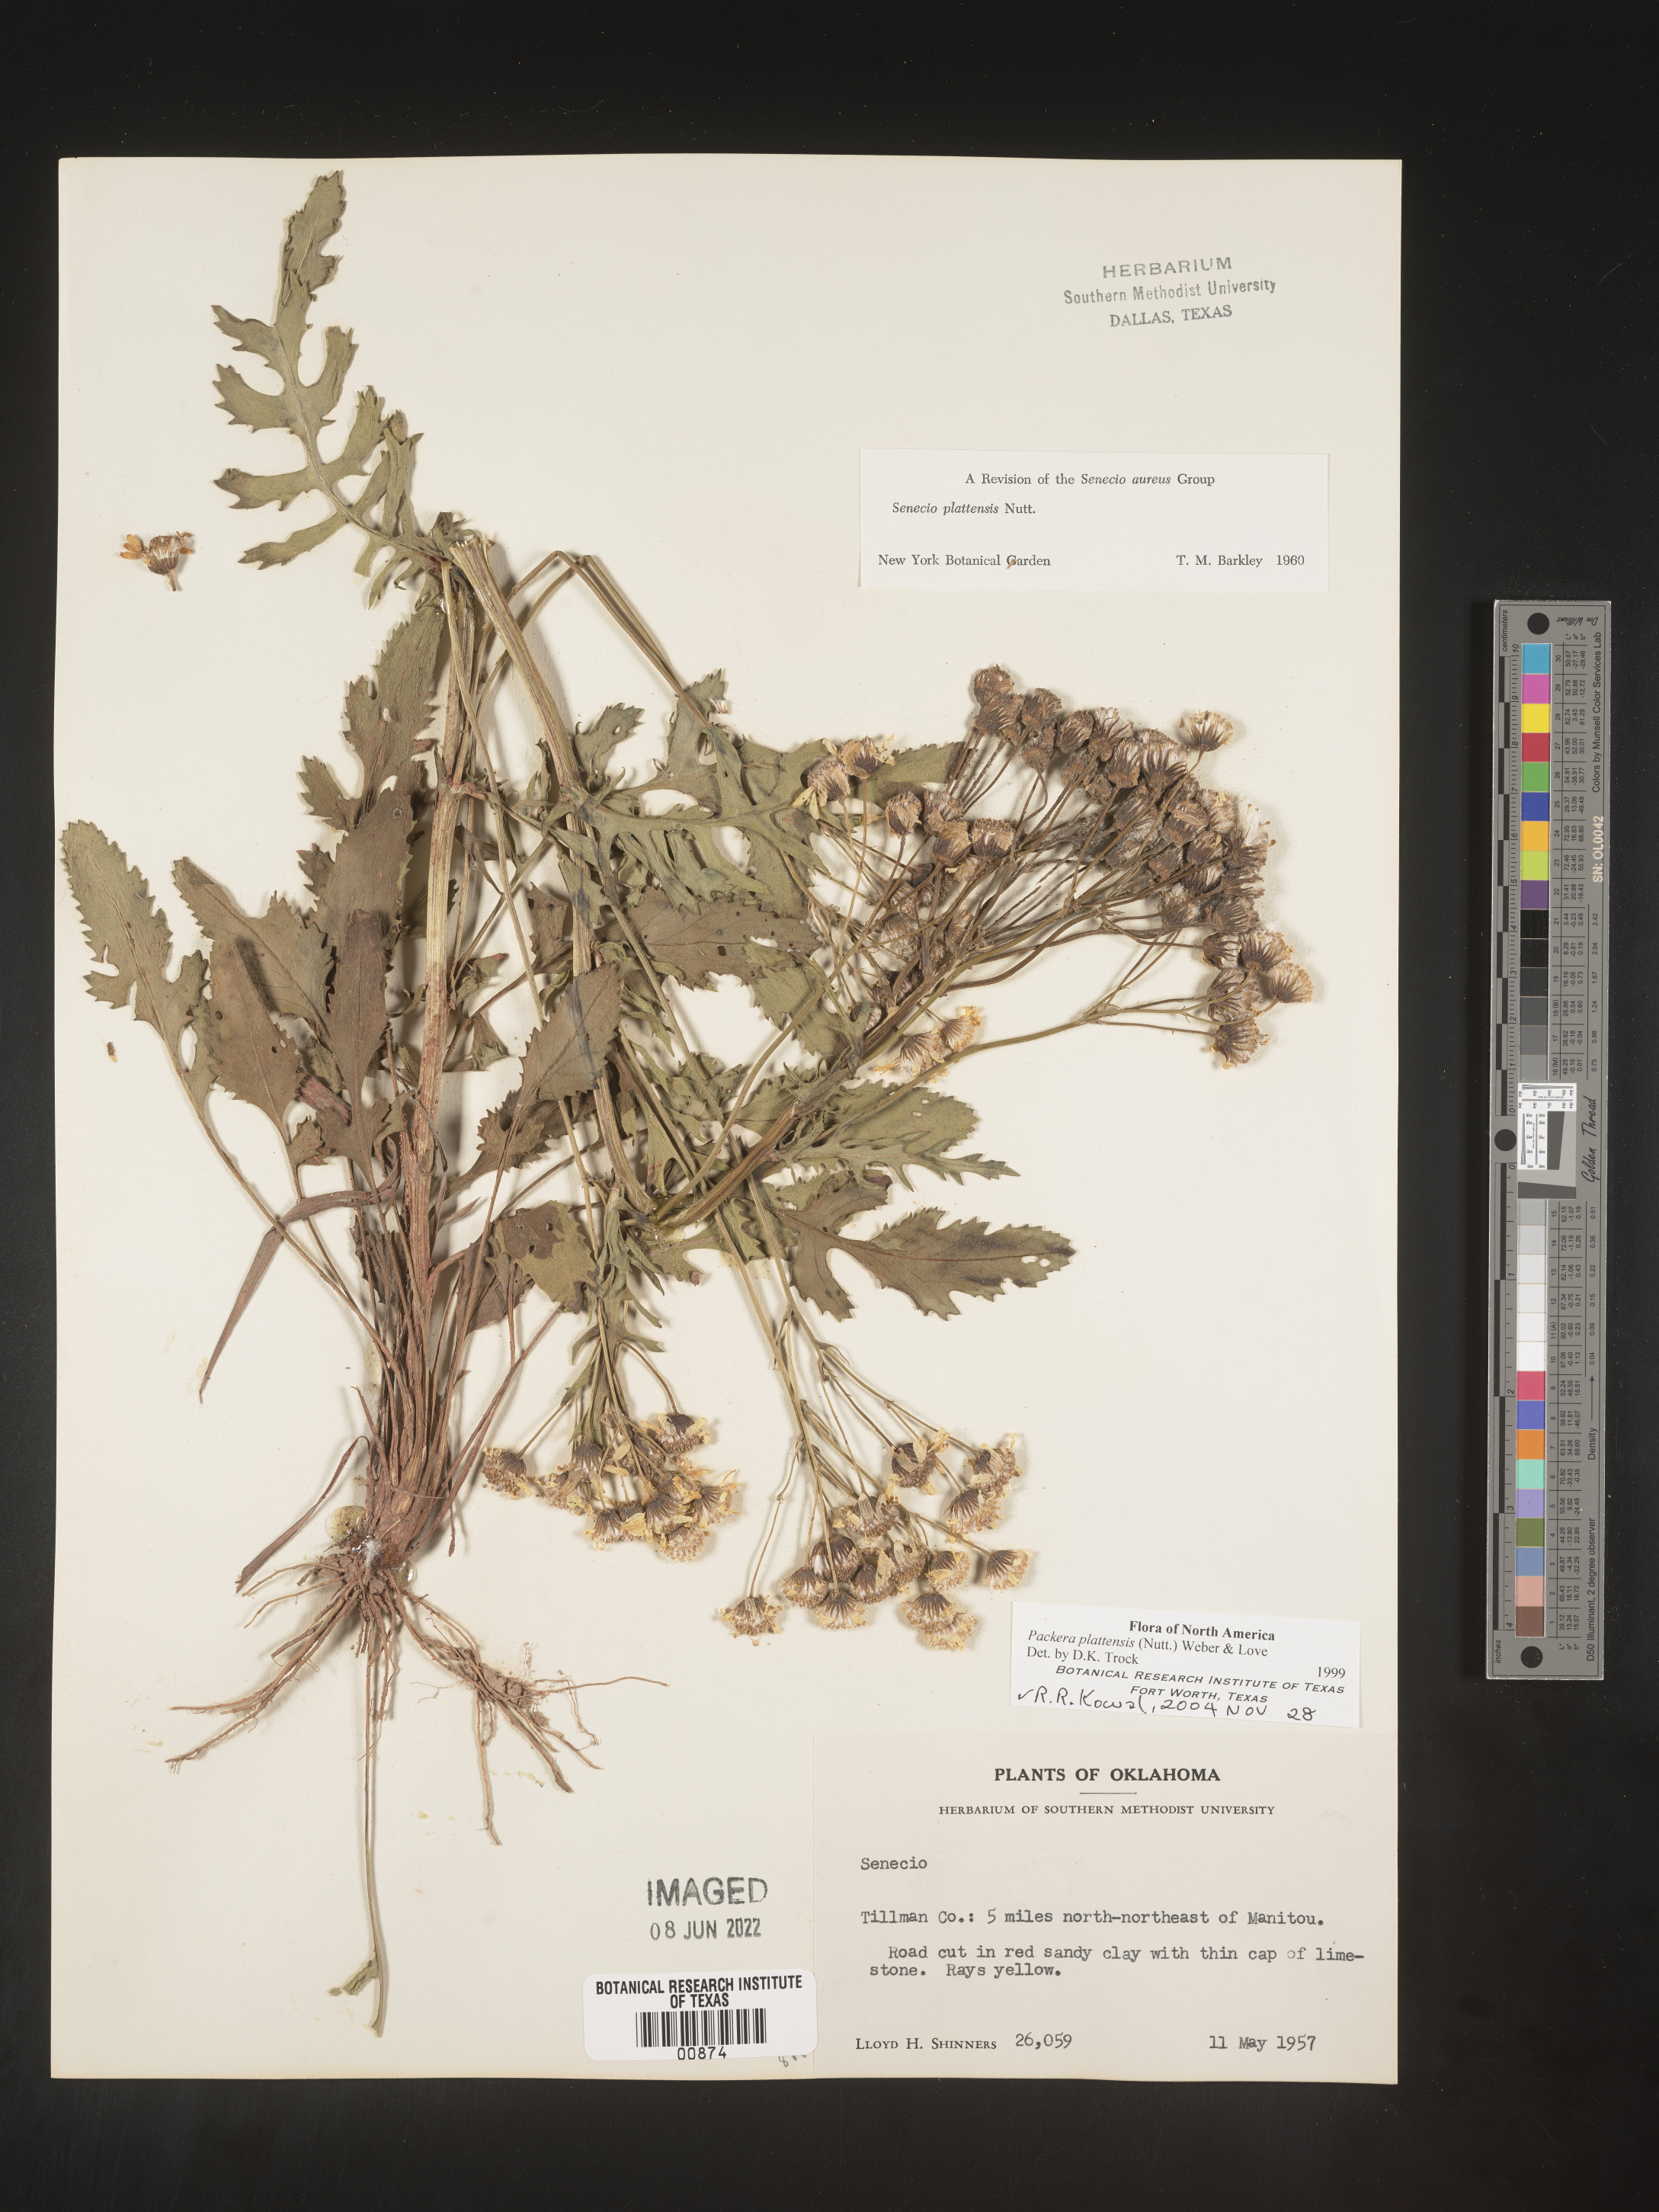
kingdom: Plantae
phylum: Tracheophyta
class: Magnoliopsida
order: Asterales
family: Asteraceae
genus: Packera
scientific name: Packera plattensis
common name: Prairie groundsel
